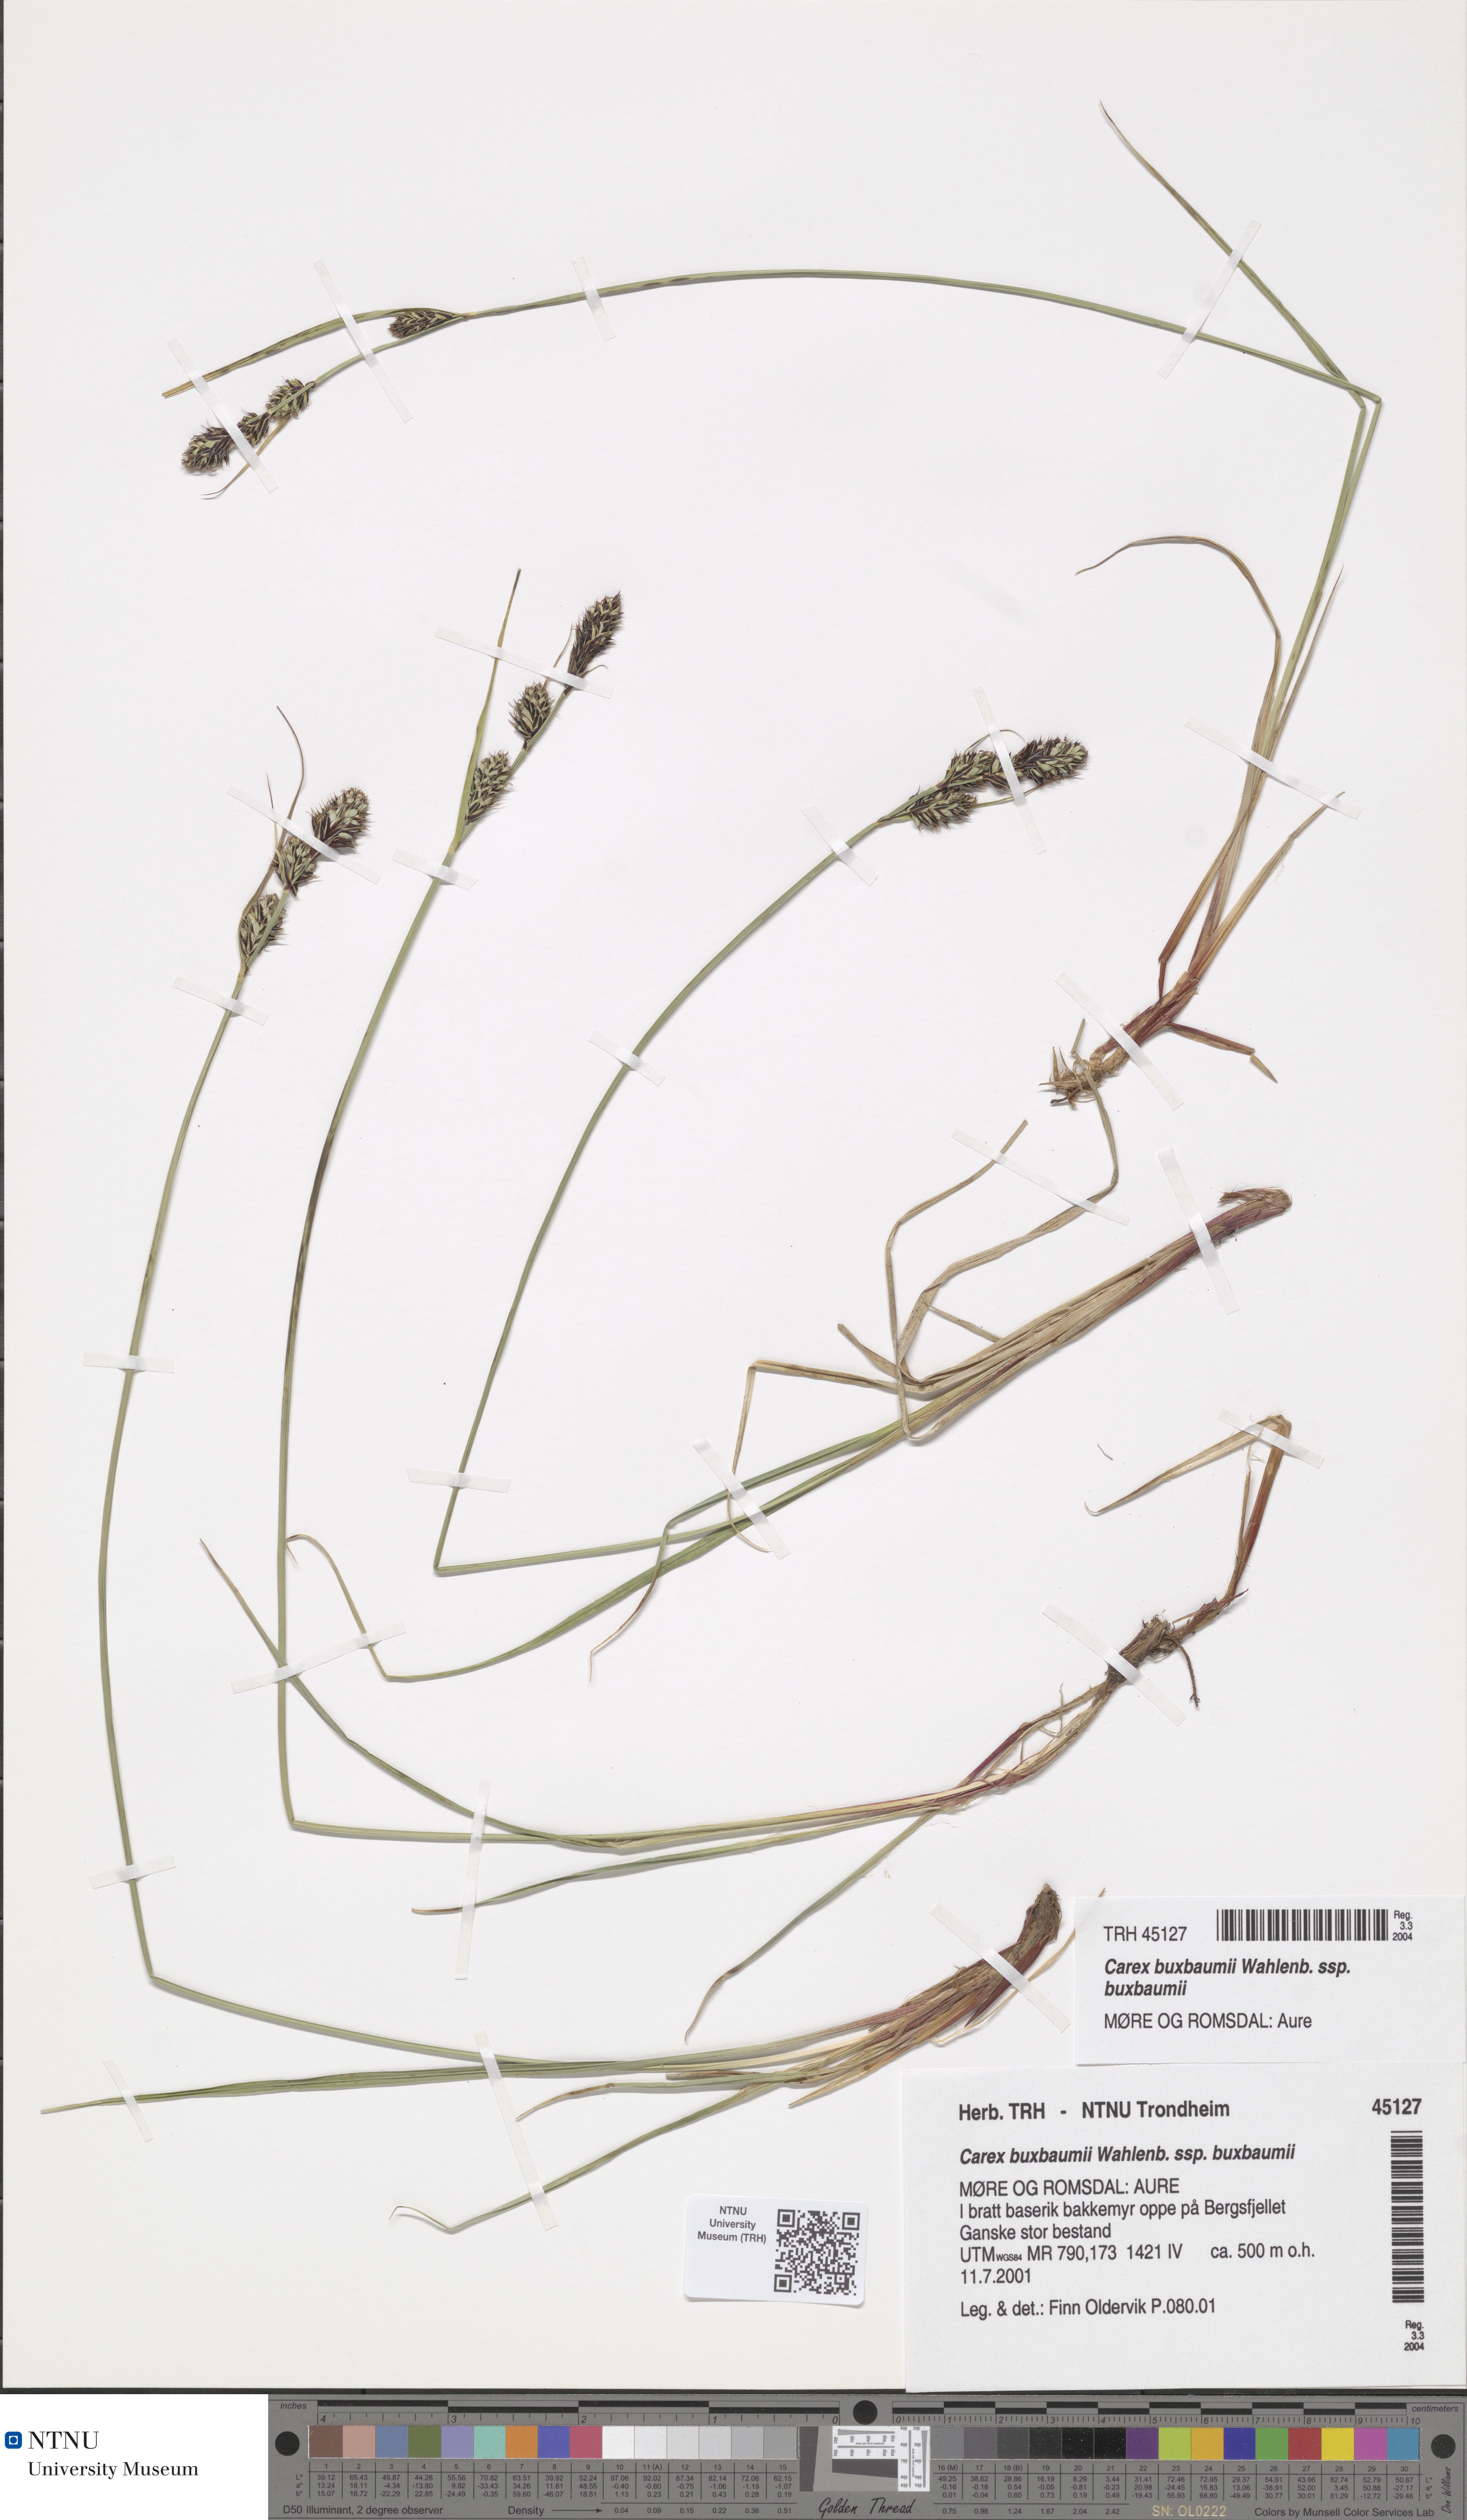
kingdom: Plantae
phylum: Tracheophyta
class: Liliopsida
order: Poales
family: Cyperaceae
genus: Carex
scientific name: Carex buxbaumii
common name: Club sedge
